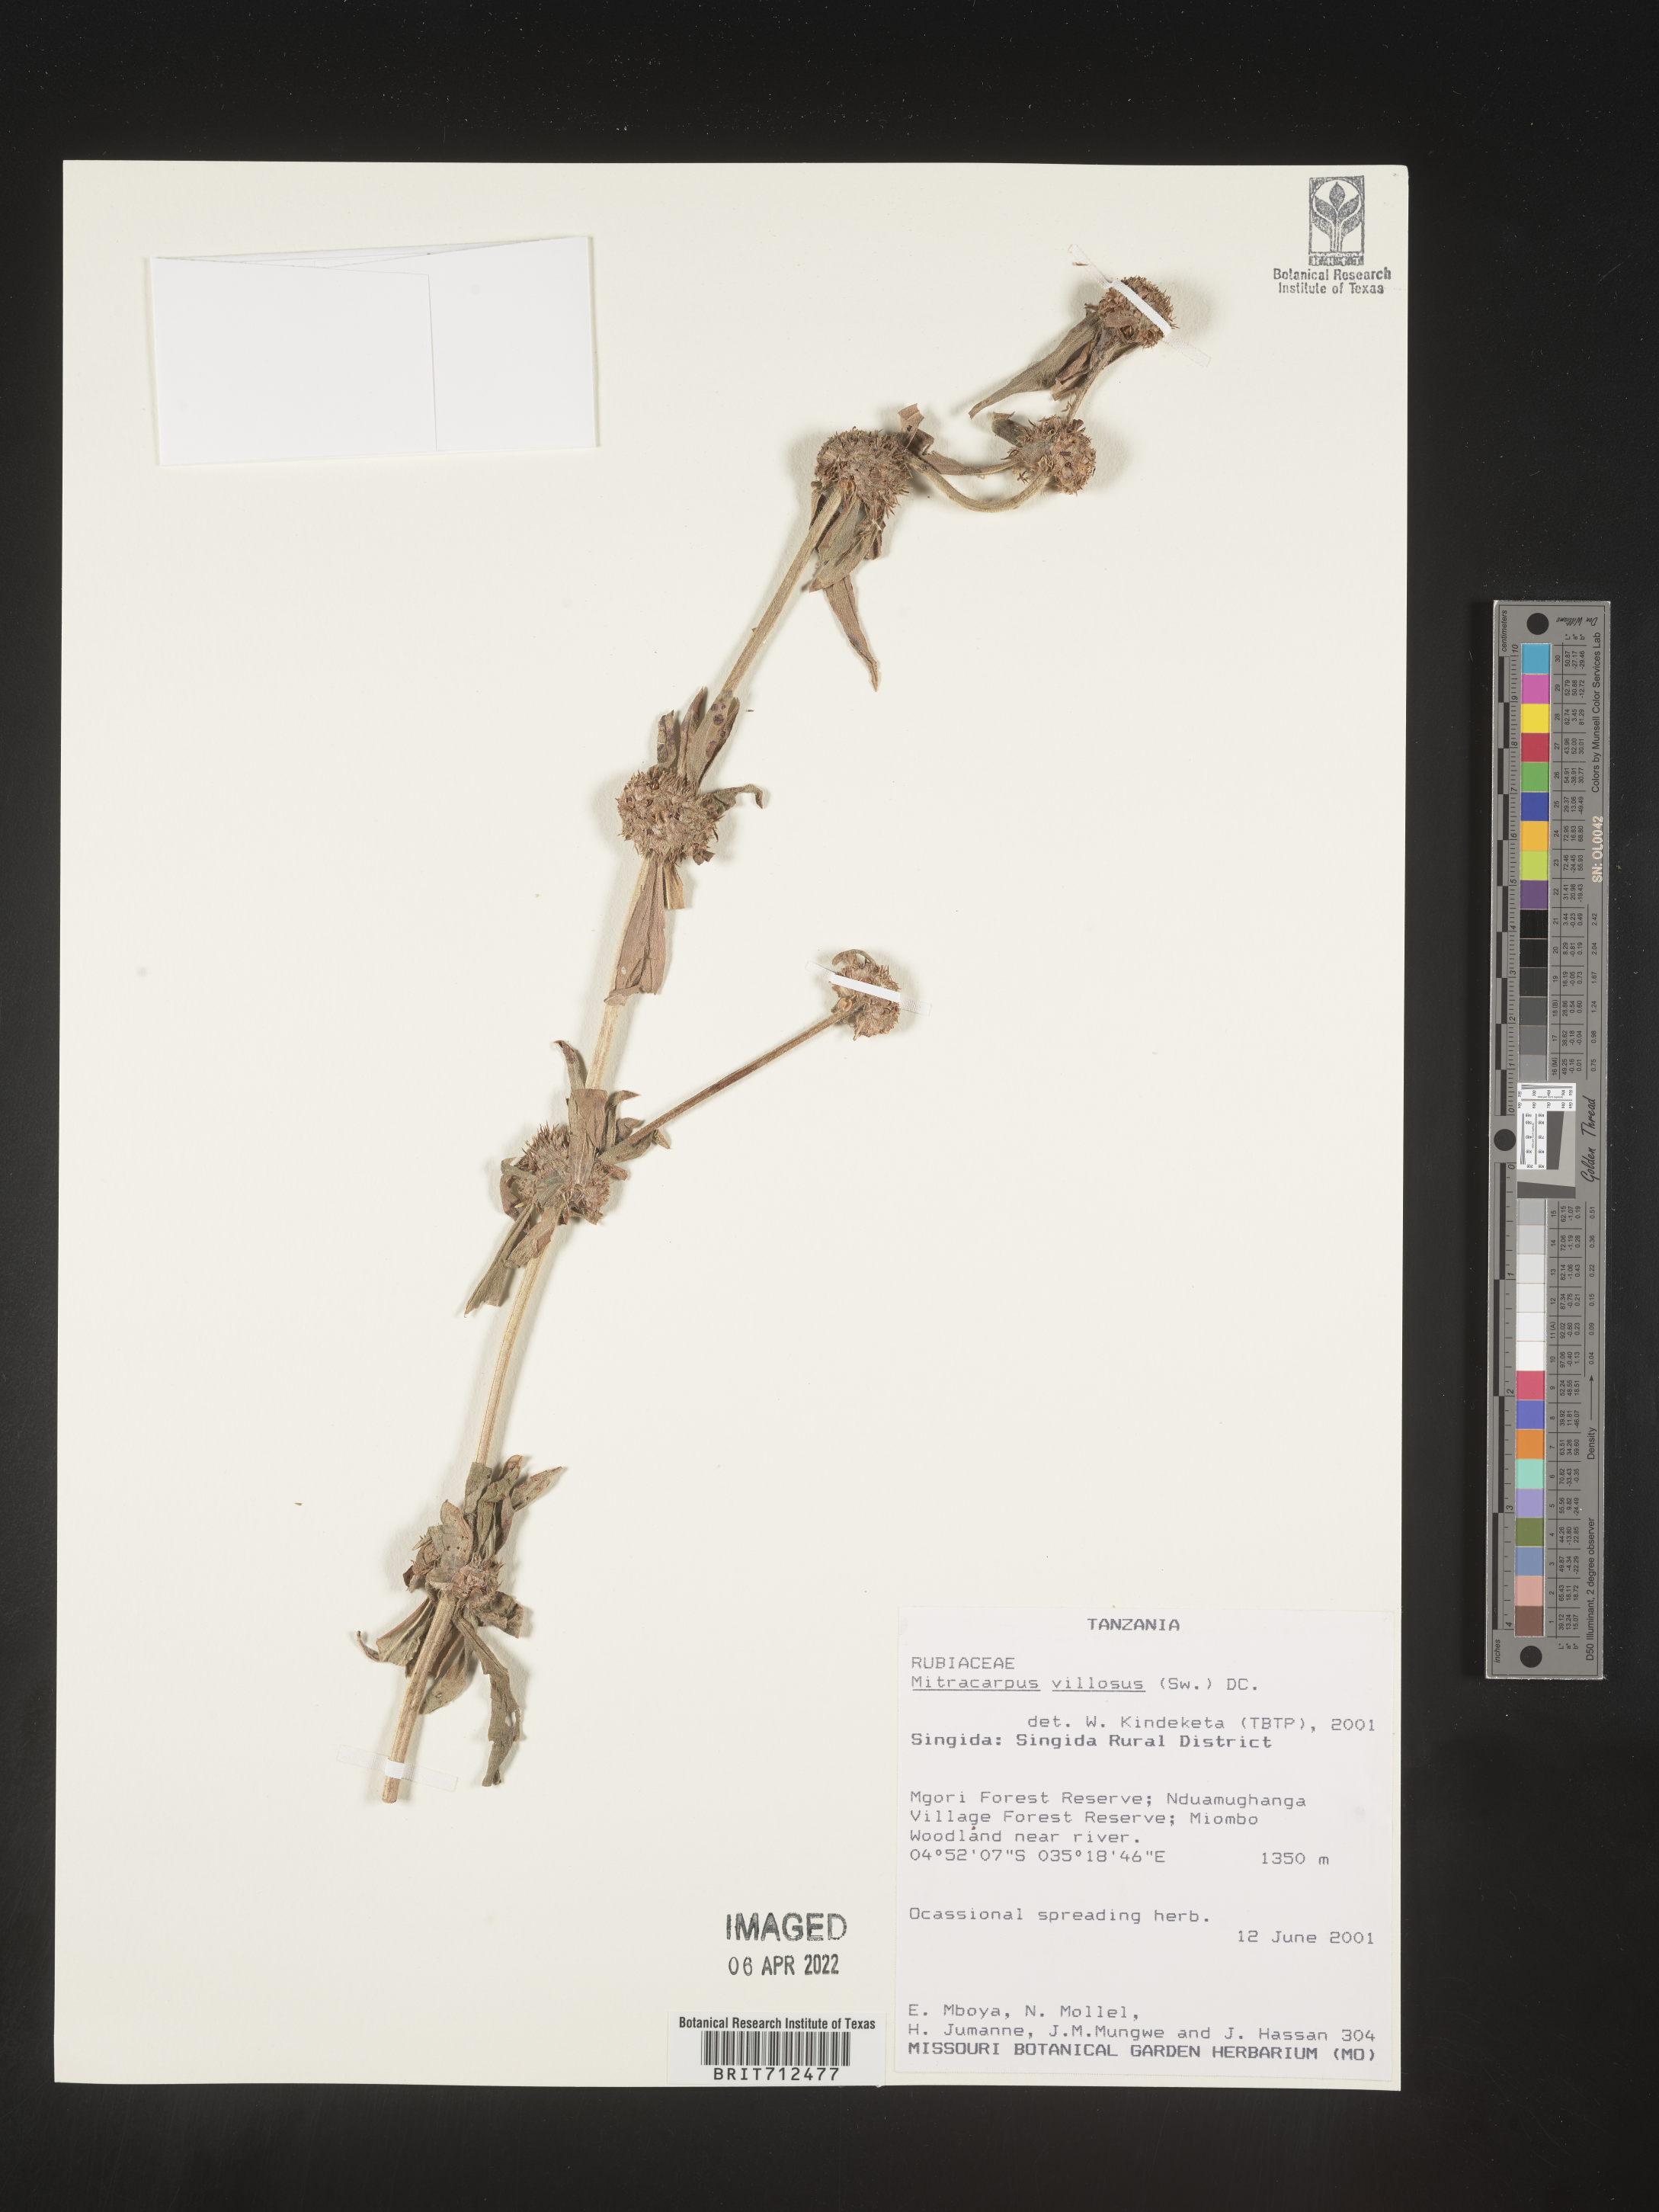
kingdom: Plantae
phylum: Tracheophyta
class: Magnoliopsida
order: Gentianales
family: Rubiaceae
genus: Mitracarpus
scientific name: Mitracarpus
